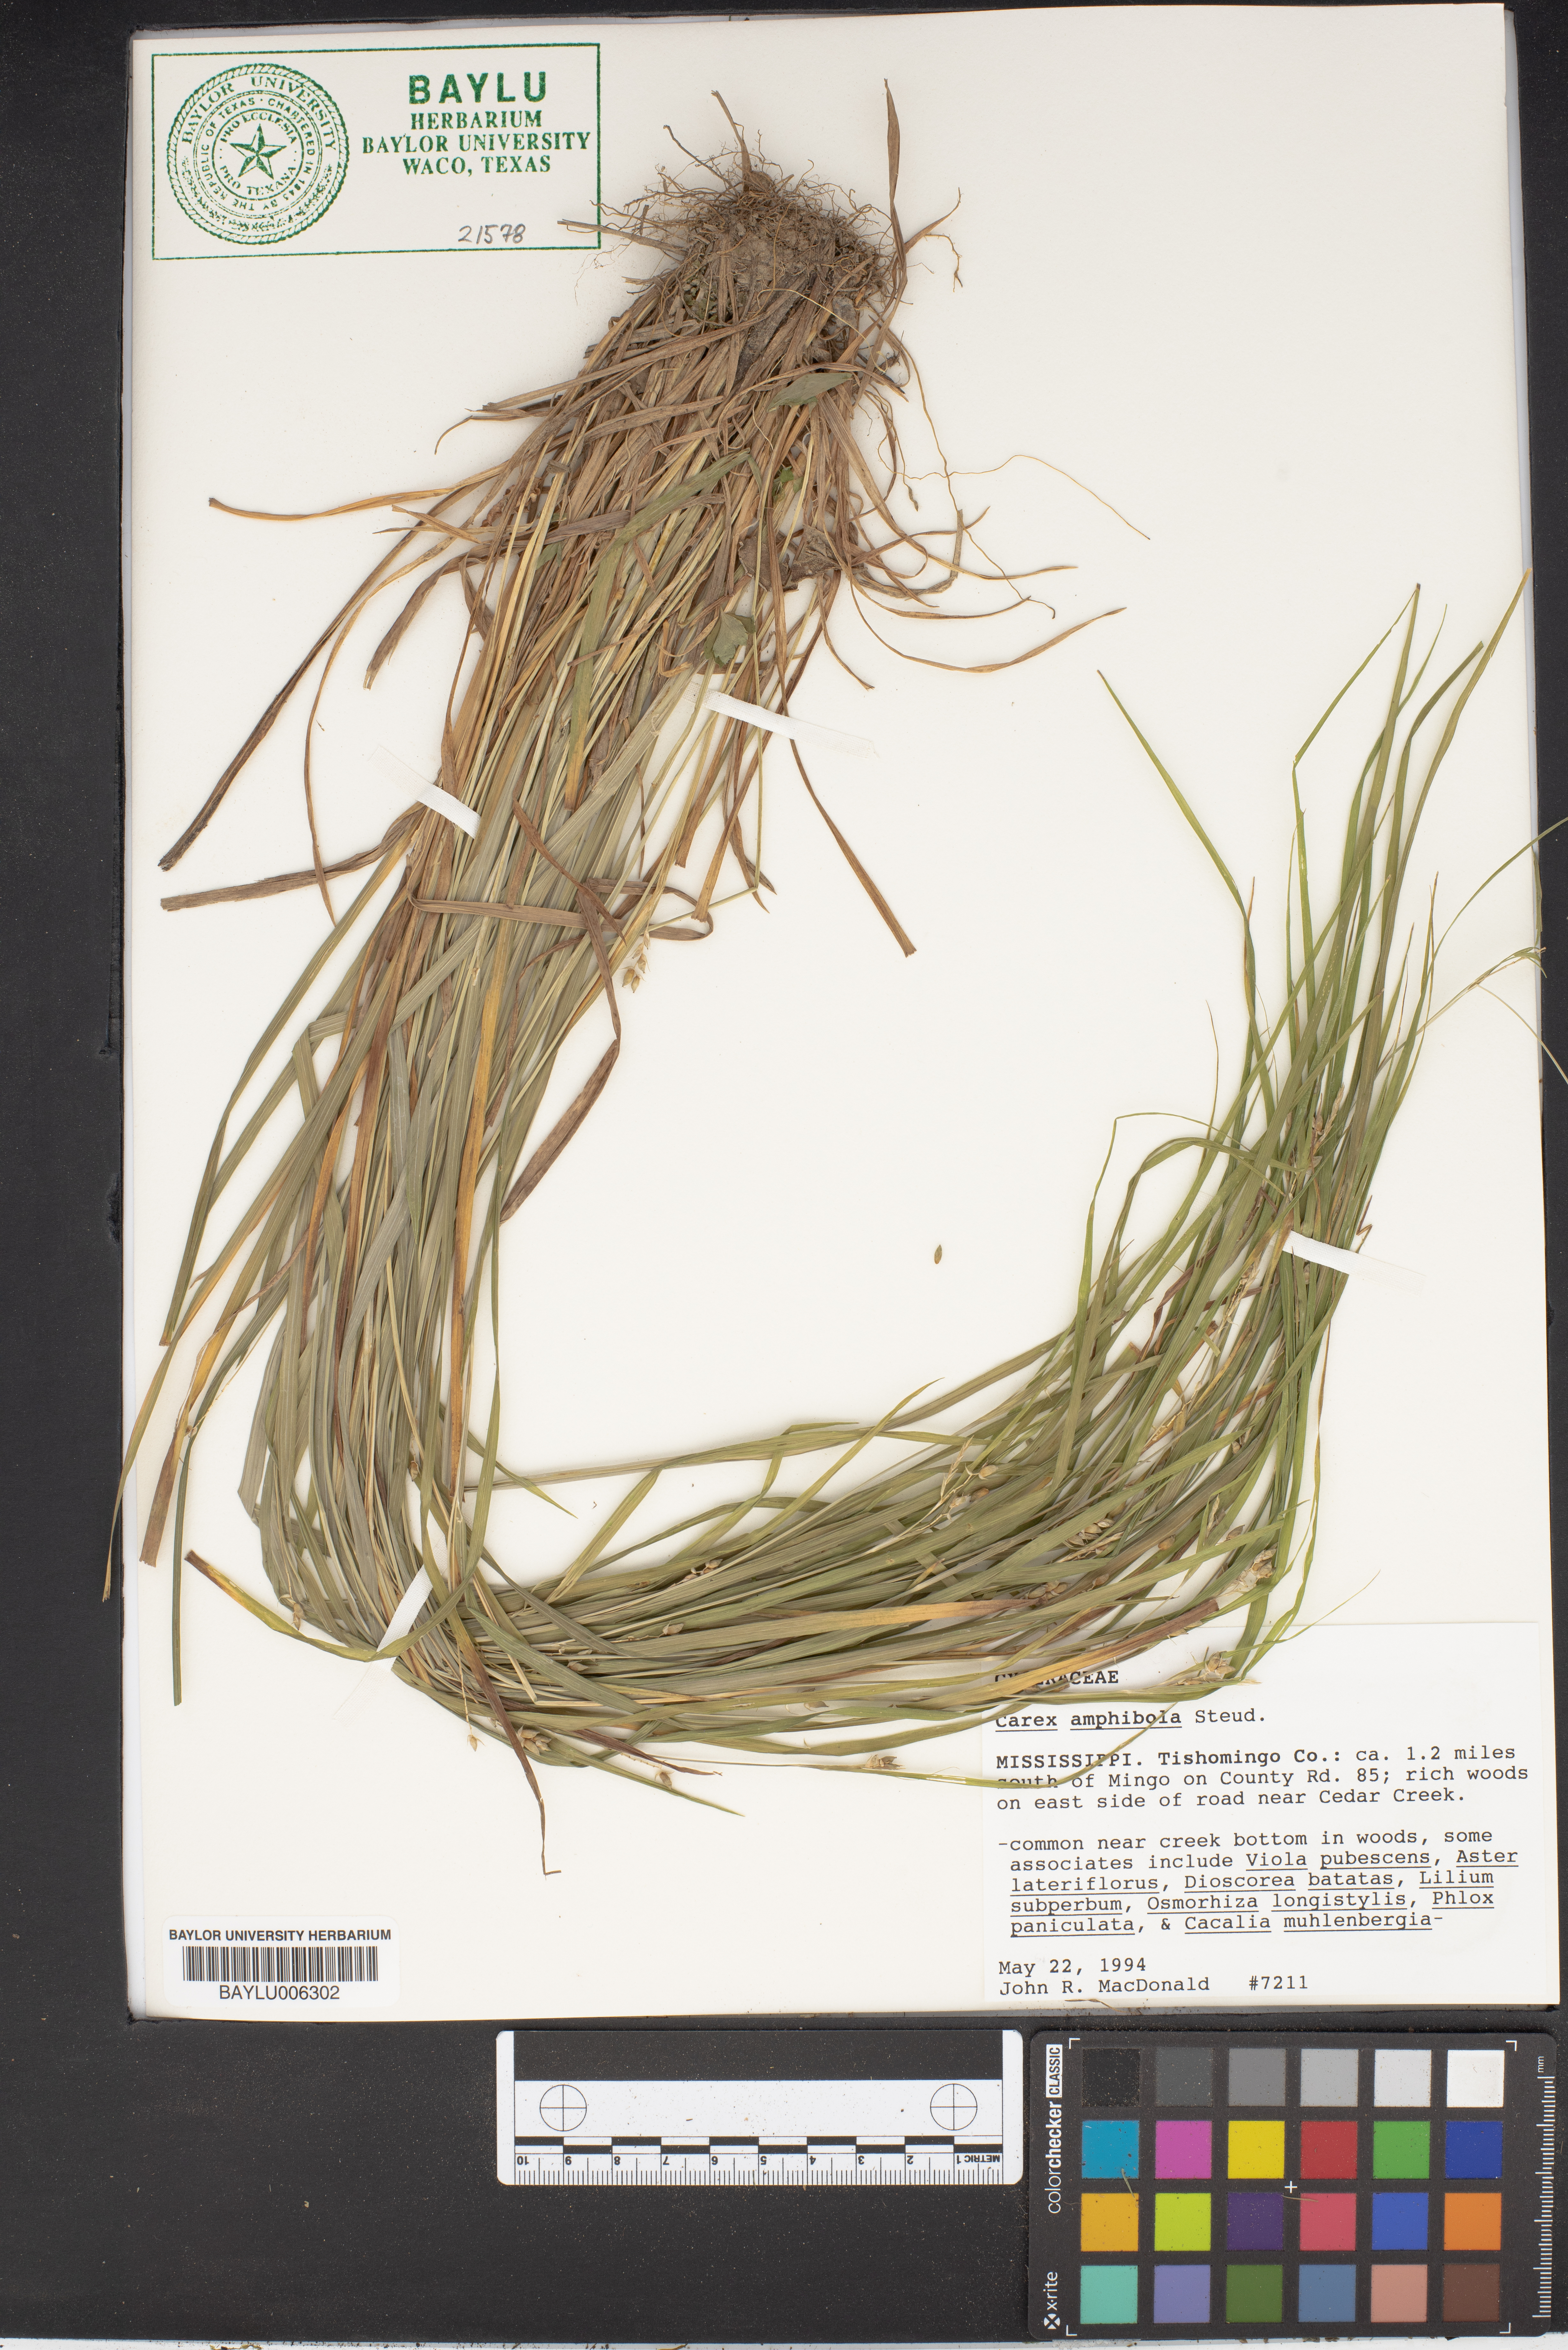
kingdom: Plantae
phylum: Tracheophyta
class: Liliopsida
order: Poales
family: Cyperaceae
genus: Carex
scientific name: Carex amphibola
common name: Amphibious sedge
